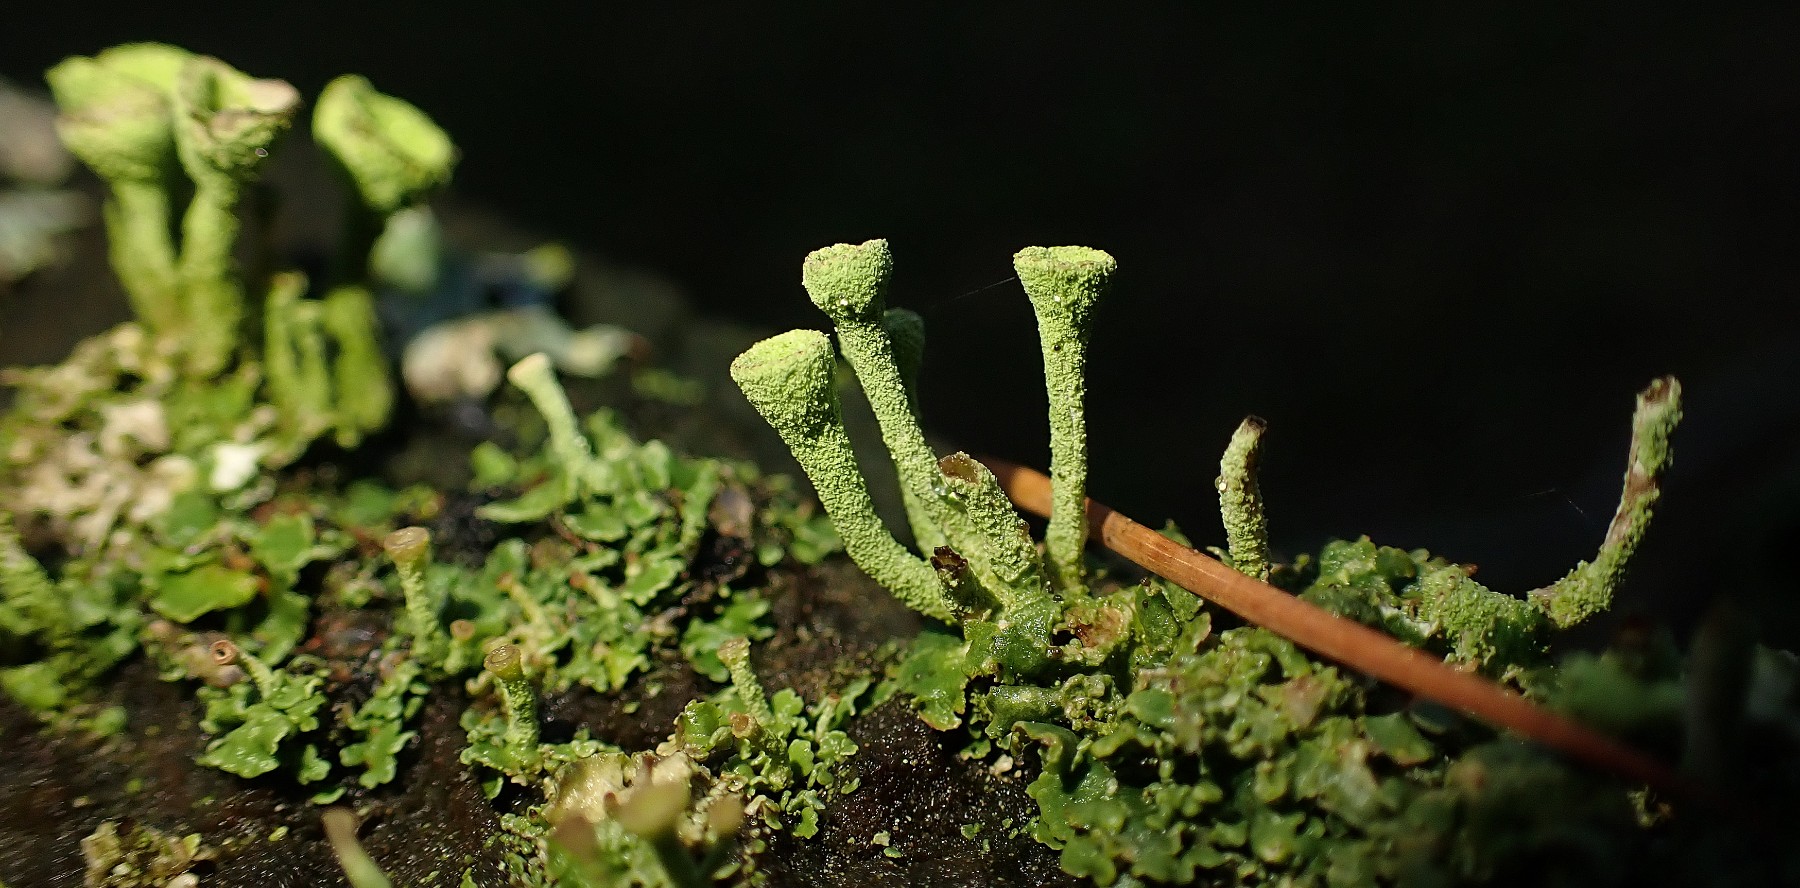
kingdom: Fungi
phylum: Ascomycota
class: Lecanoromycetes
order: Lecanorales
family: Cladoniaceae
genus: Cladonia
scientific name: Cladonia fimbriata
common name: bleggrøn bægerlav
